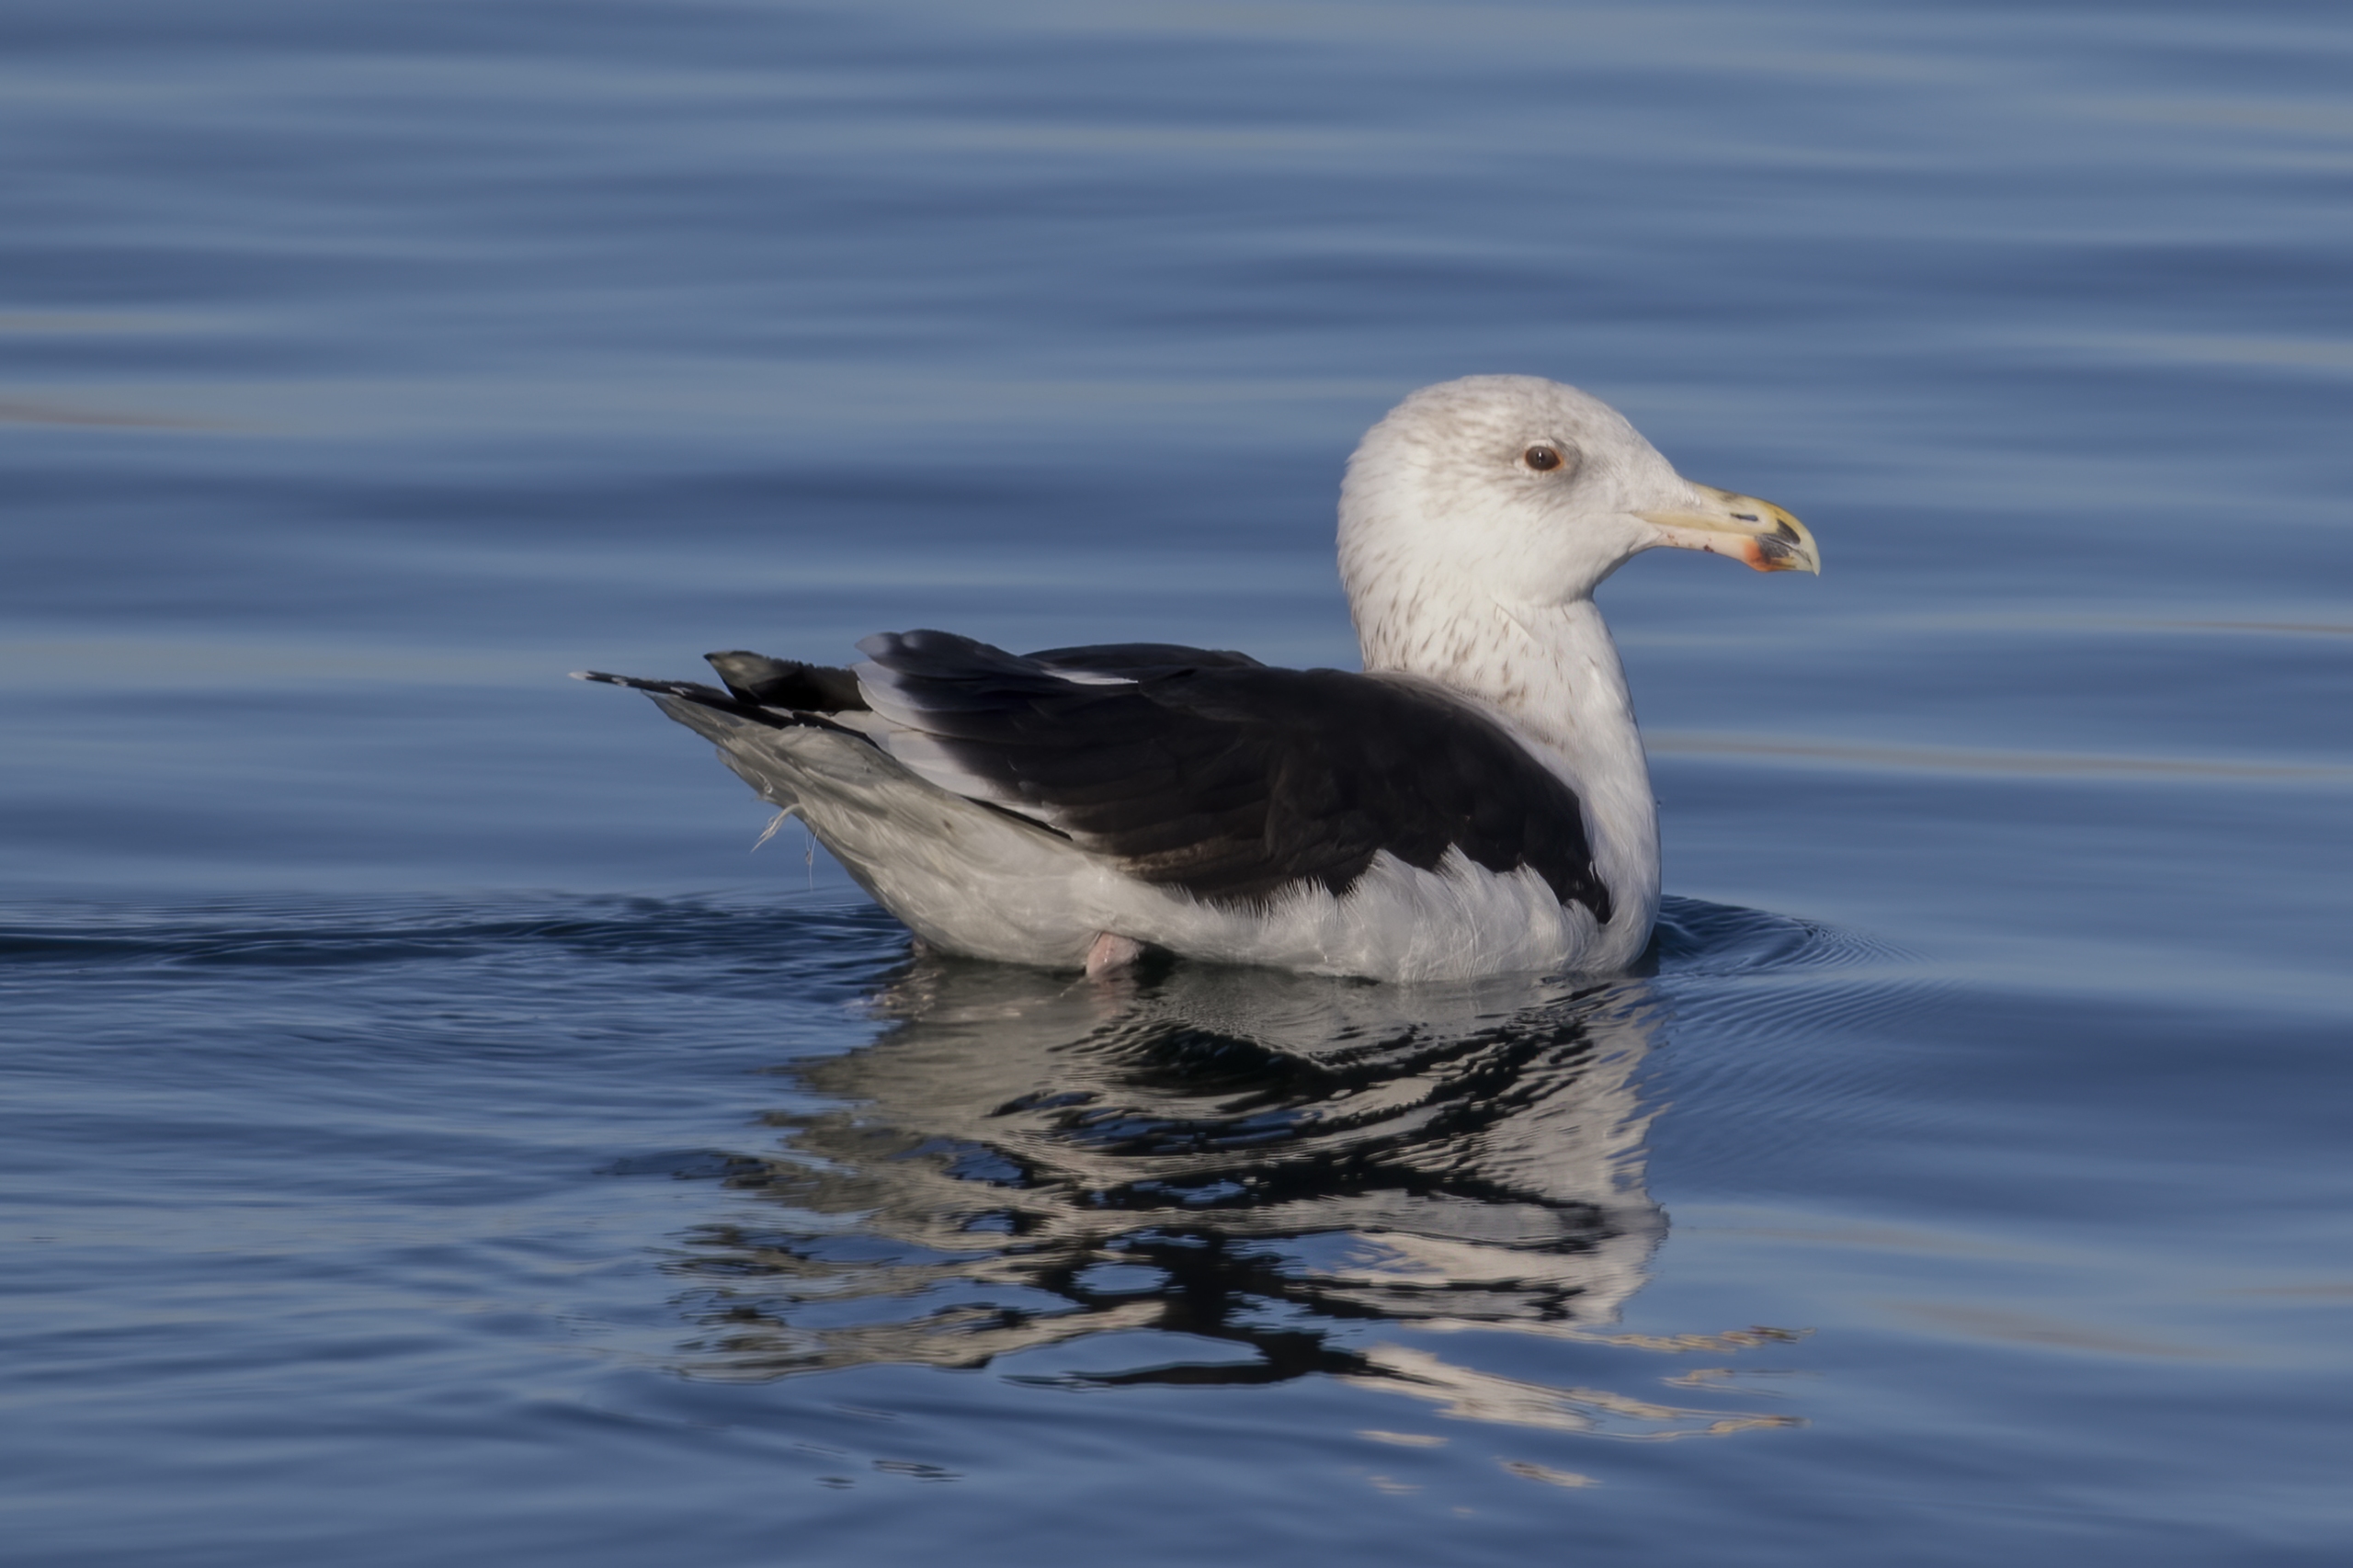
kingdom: Animalia
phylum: Chordata
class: Aves
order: Charadriiformes
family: Laridae
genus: Larus
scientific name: Larus marinus
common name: Svartbag
